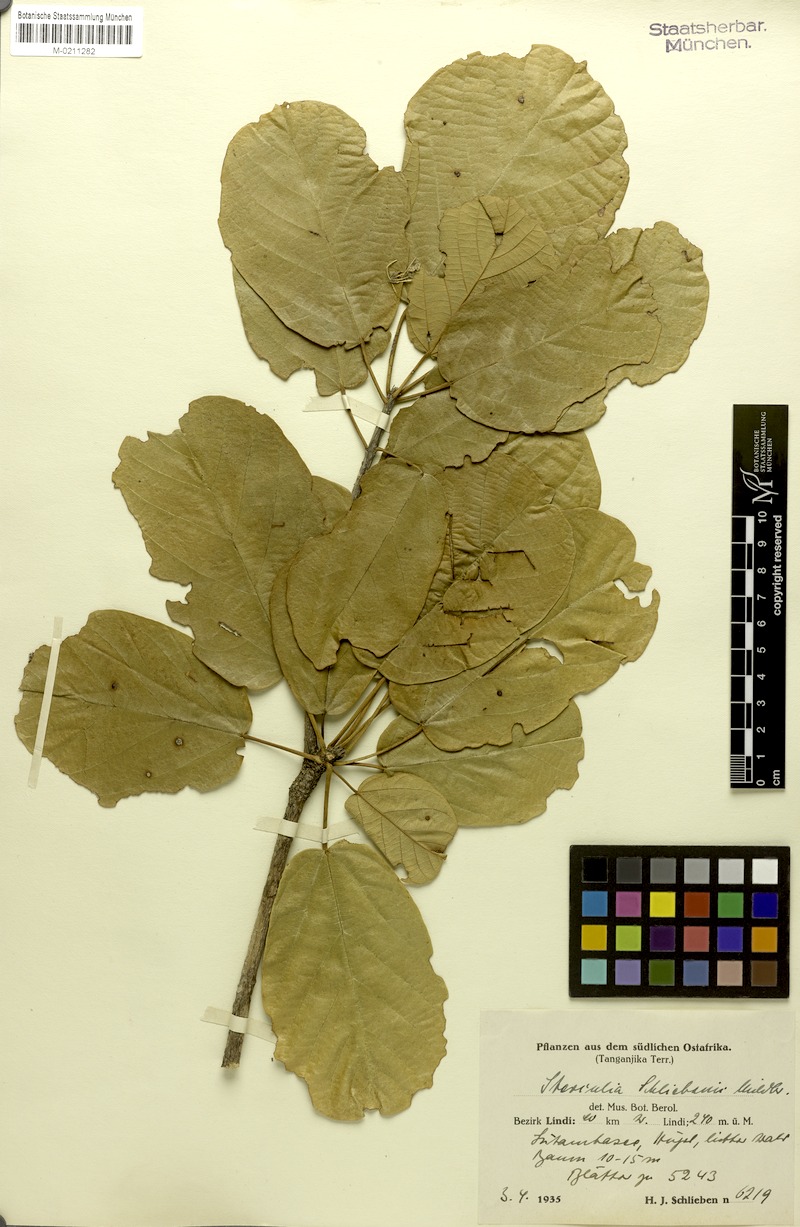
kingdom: Plantae
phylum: Tracheophyta
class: Magnoliopsida
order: Malvales
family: Malvaceae
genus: Sterculia
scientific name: Sterculia schliebenii
